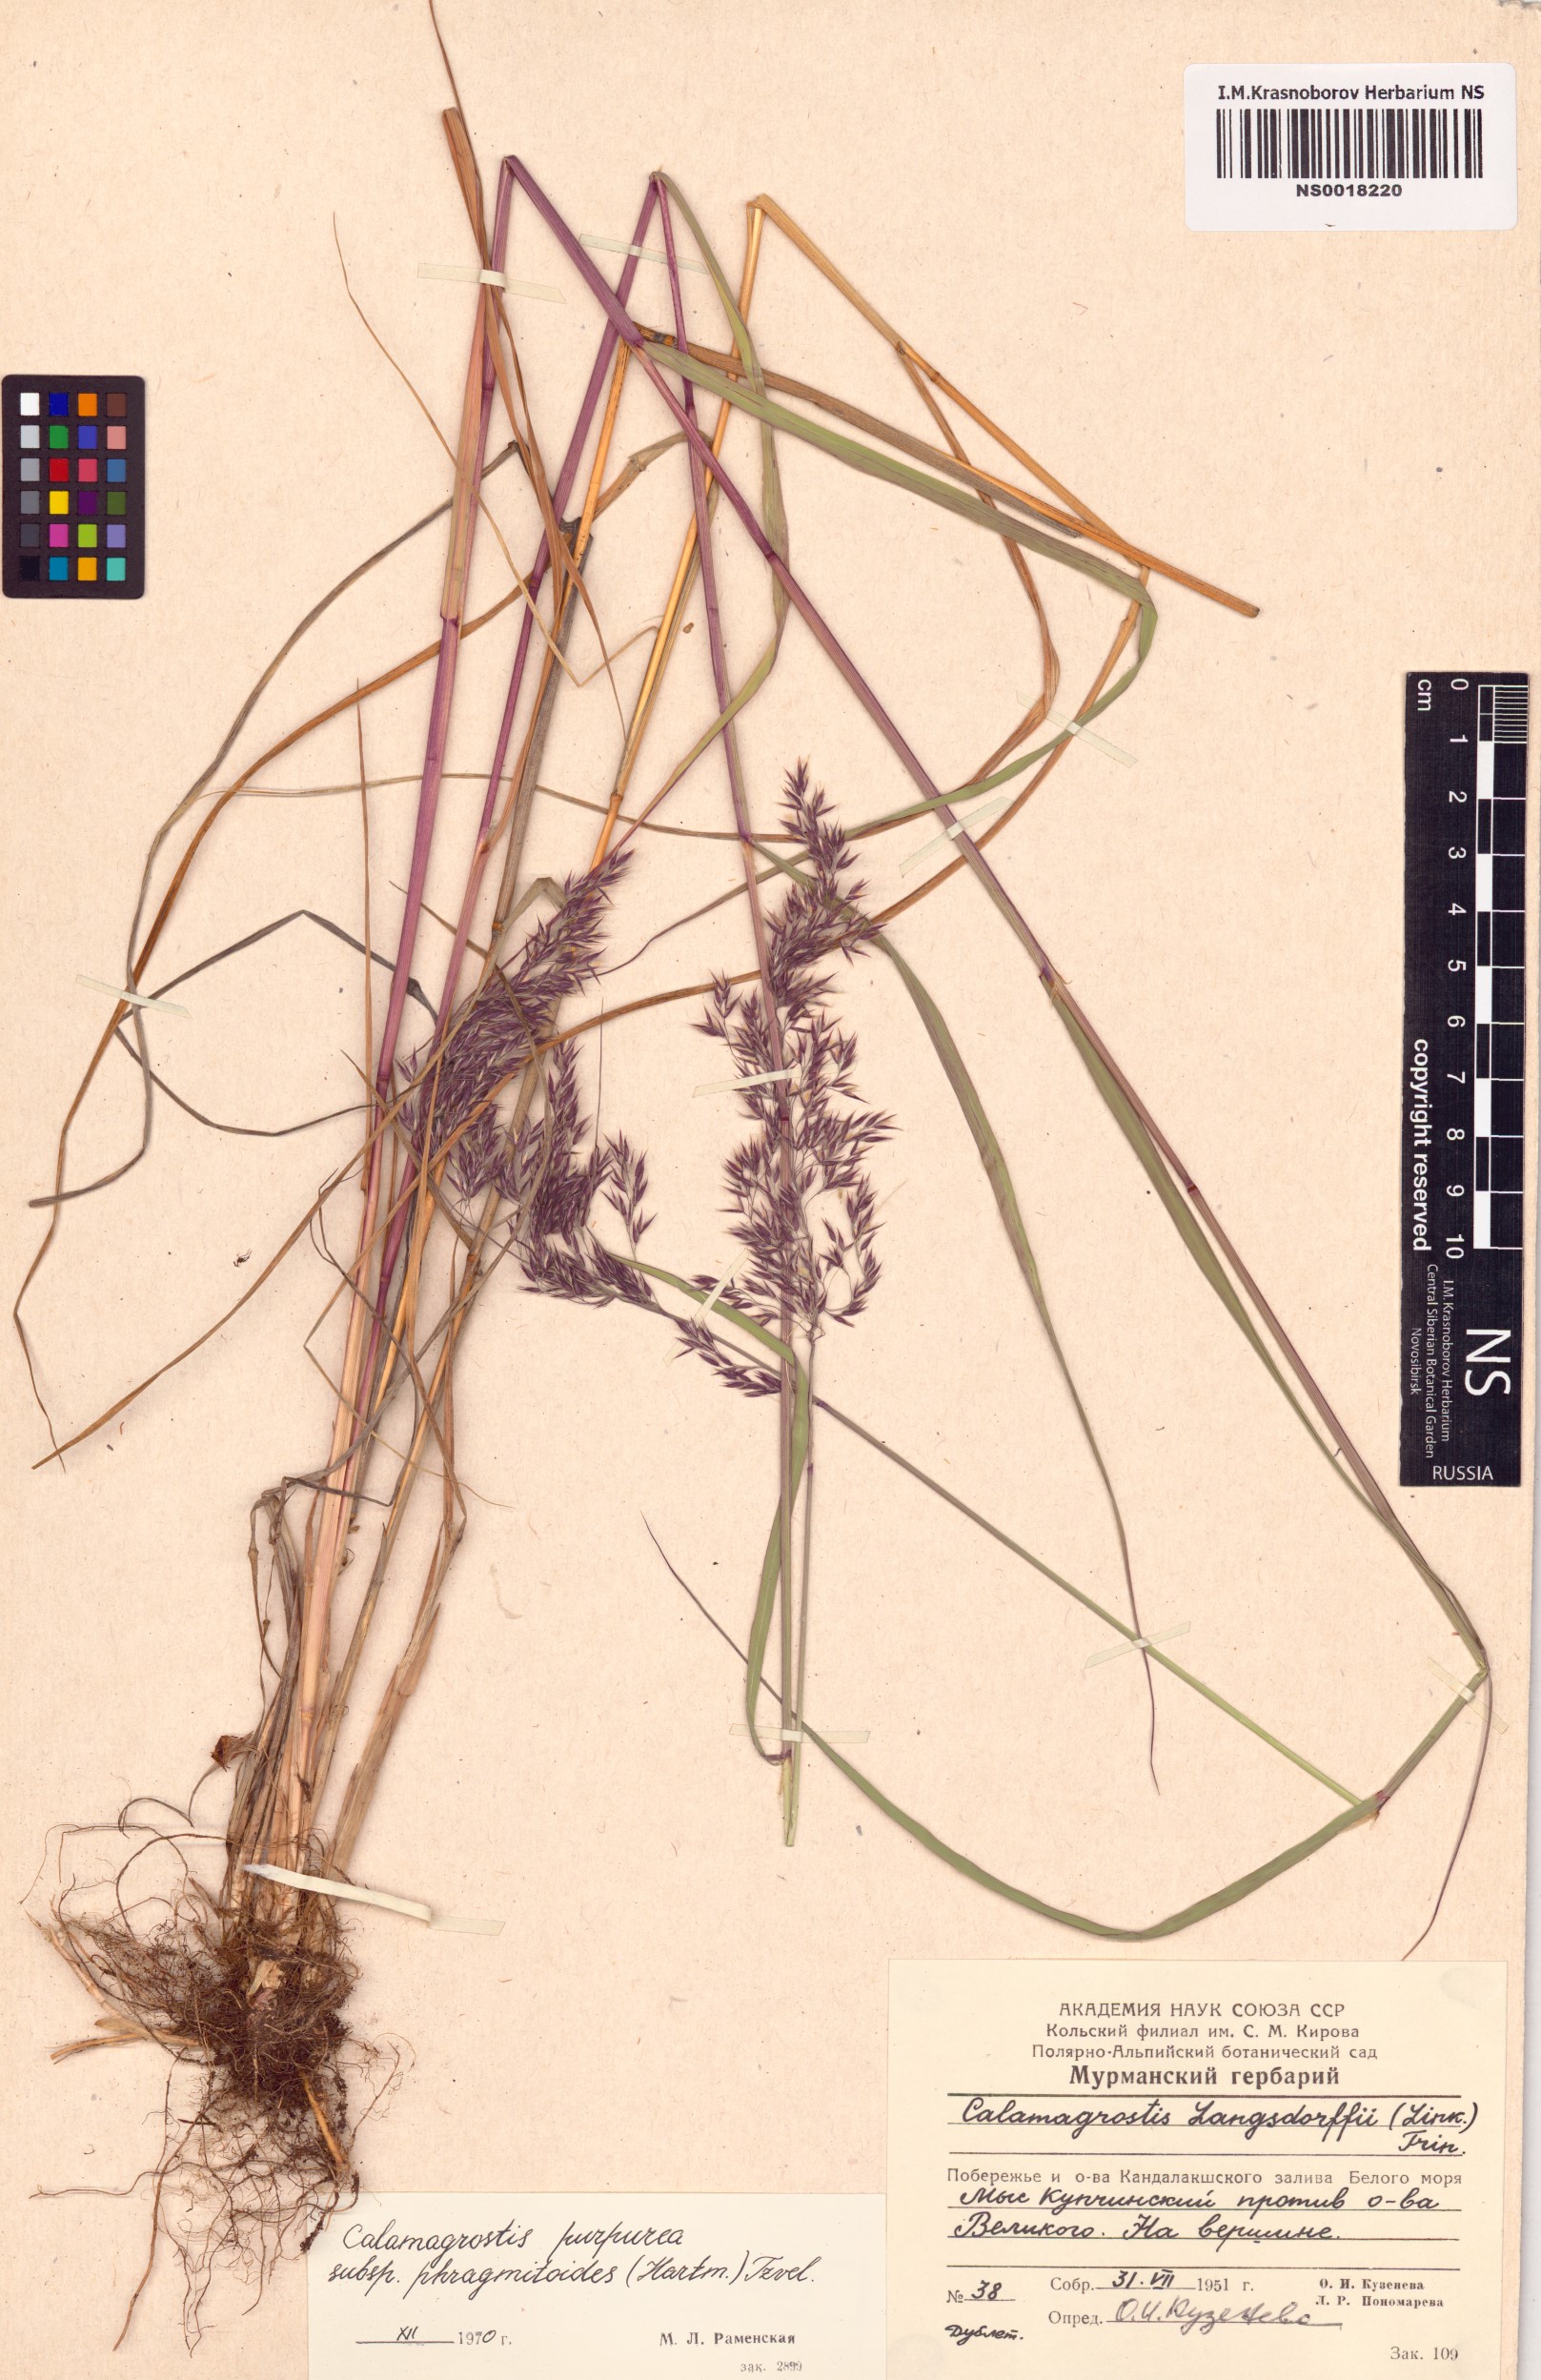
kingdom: Plantae
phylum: Tracheophyta
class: Liliopsida
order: Poales
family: Poaceae
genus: Calamagrostis
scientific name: Calamagrostis purpurea
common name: Scandinavian small-reed
